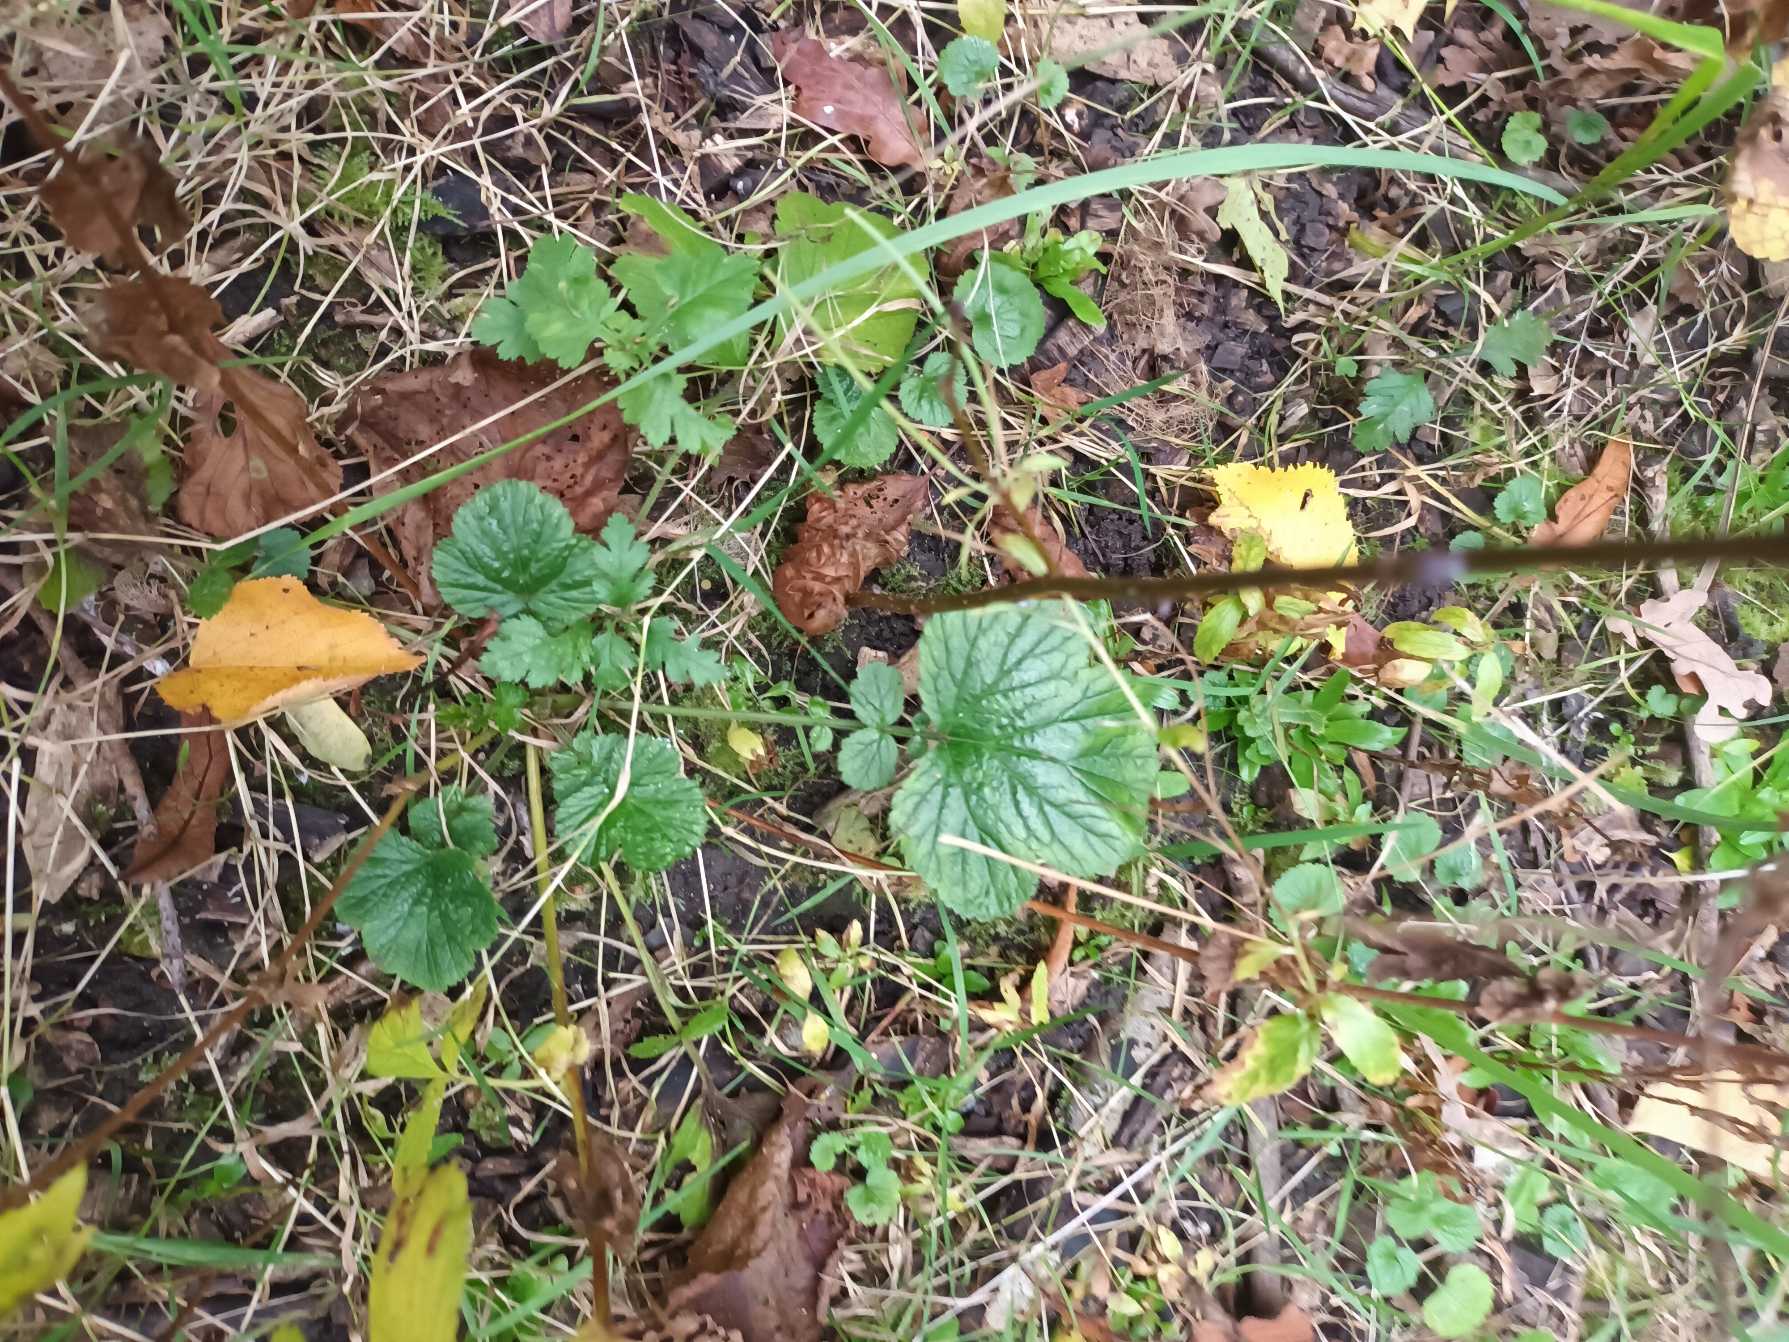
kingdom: Plantae
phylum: Tracheophyta
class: Magnoliopsida
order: Rosales
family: Rosaceae
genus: Geum
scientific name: Geum urbanum
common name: Feber-nellikerod
